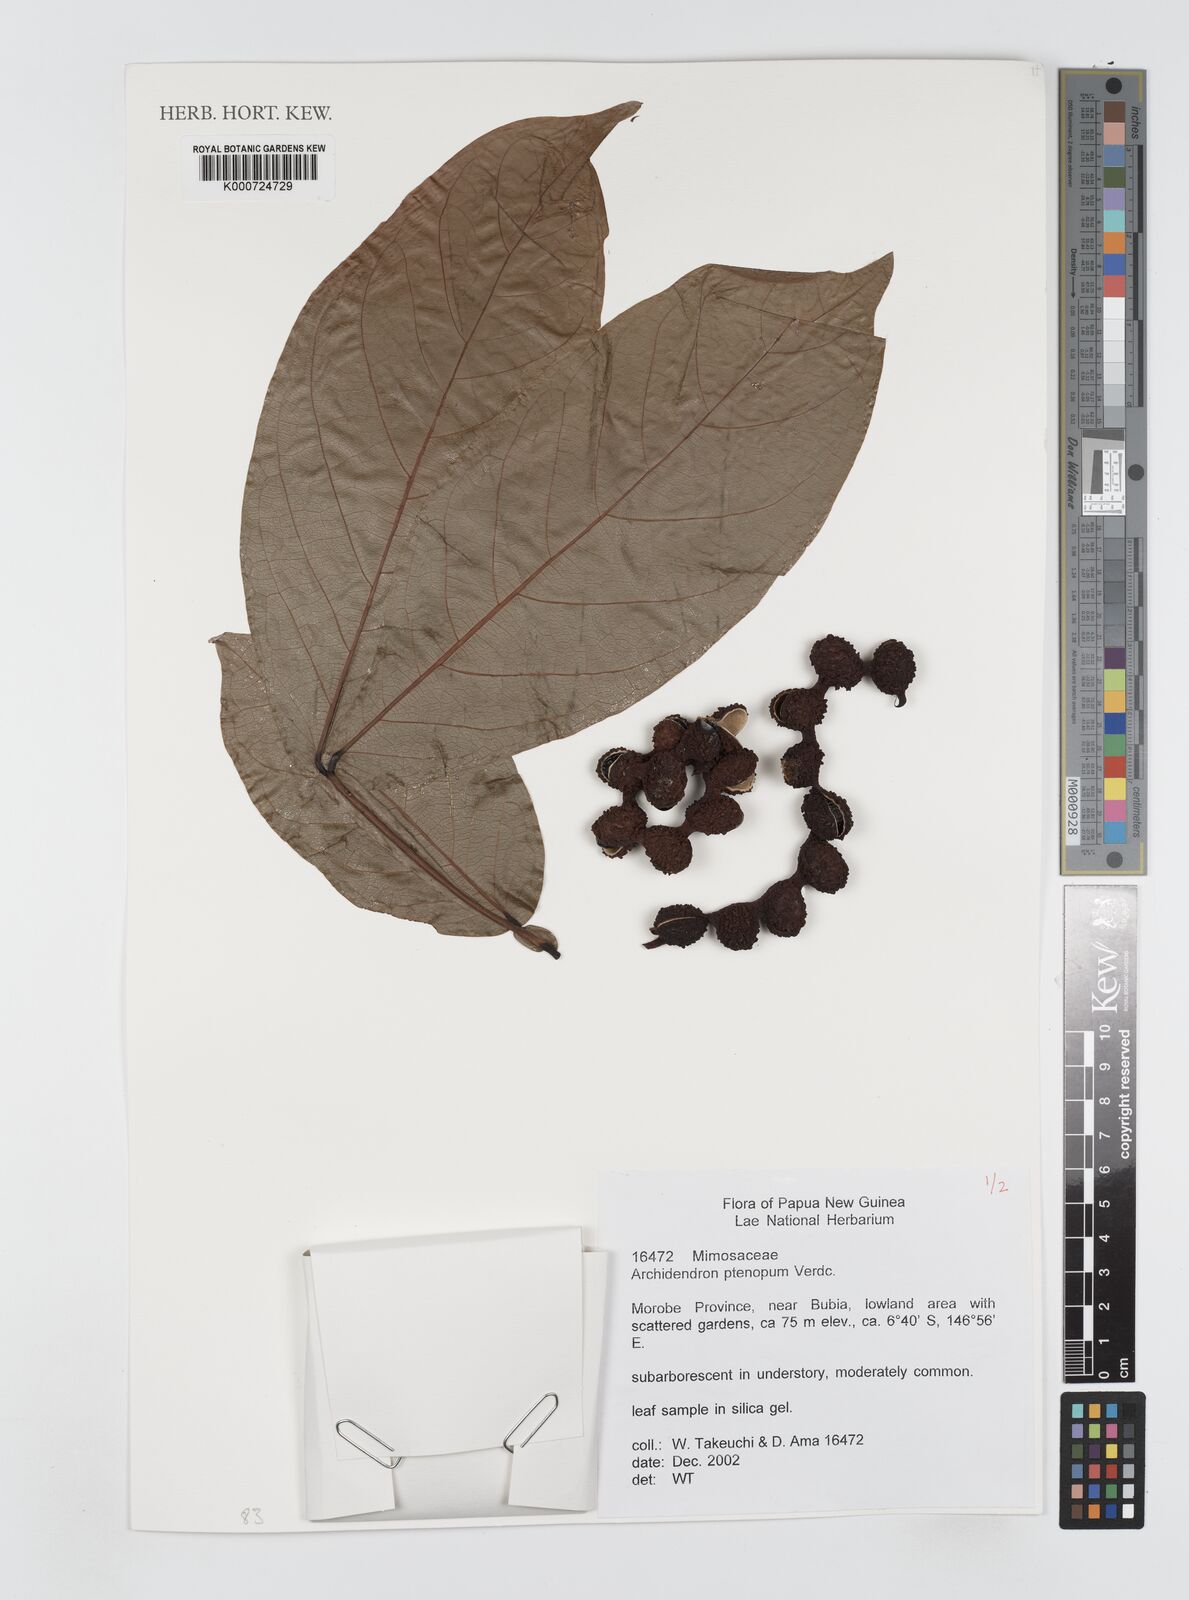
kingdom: Plantae
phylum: Tracheophyta
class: Magnoliopsida
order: Fabales
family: Fabaceae
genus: Archidendron
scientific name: Archidendron ptenopum
